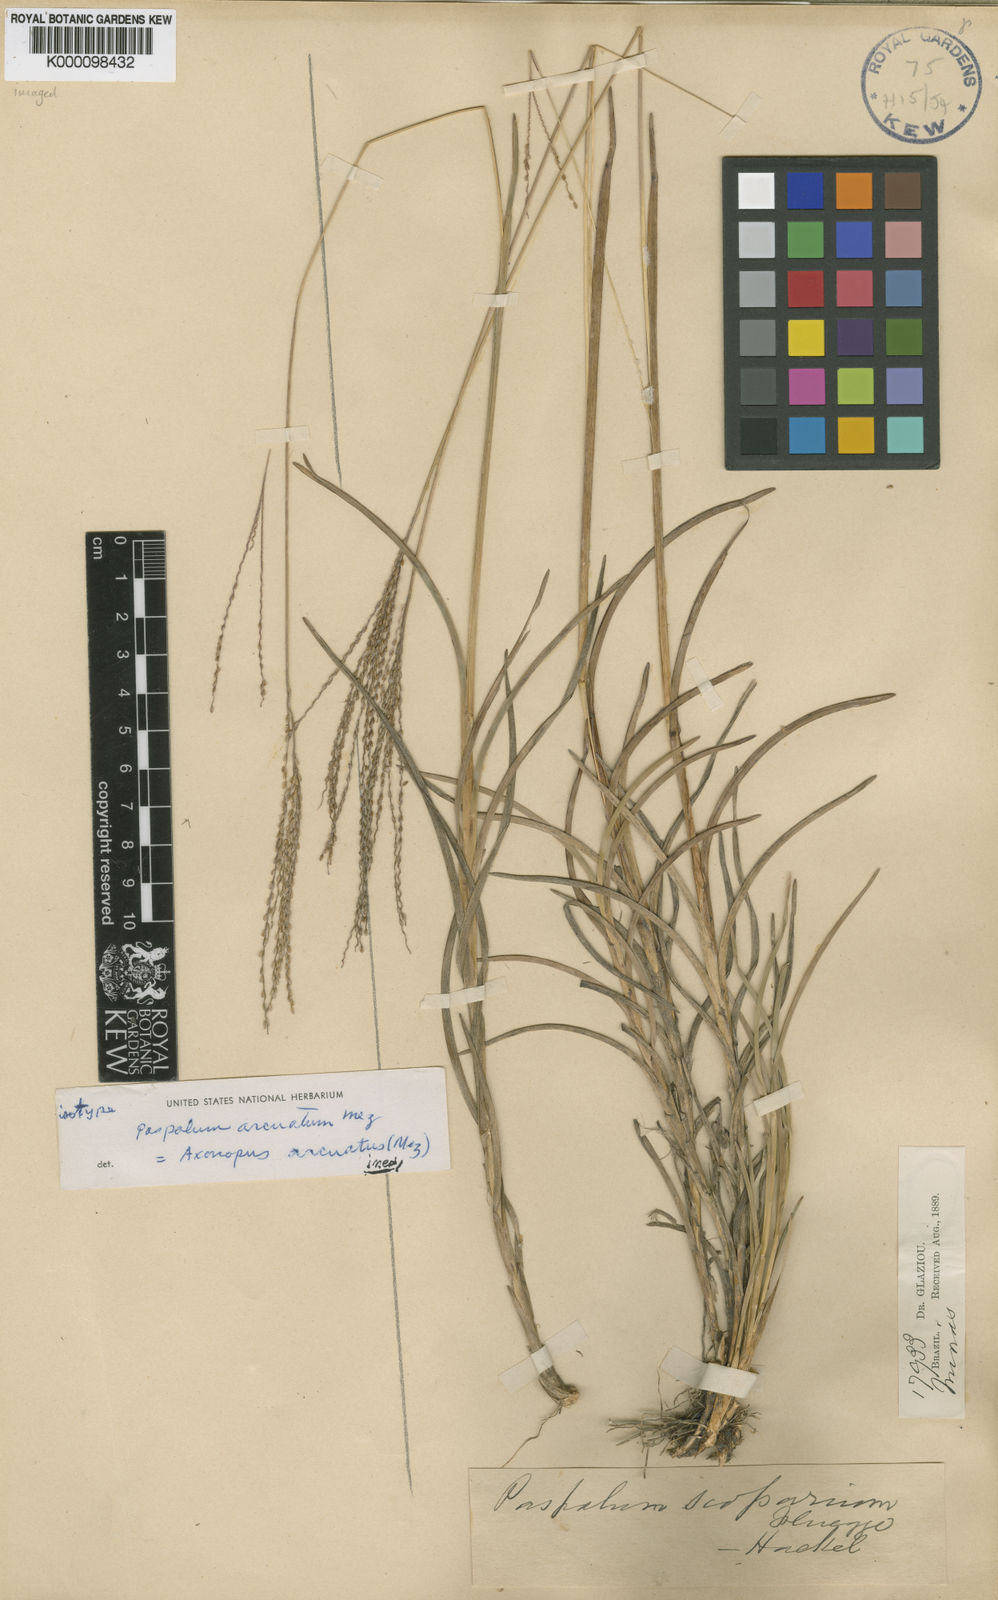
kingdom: Plantae
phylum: Tracheophyta
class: Liliopsida
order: Poales
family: Poaceae
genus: Axonopus
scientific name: Axonopus polydactylus
